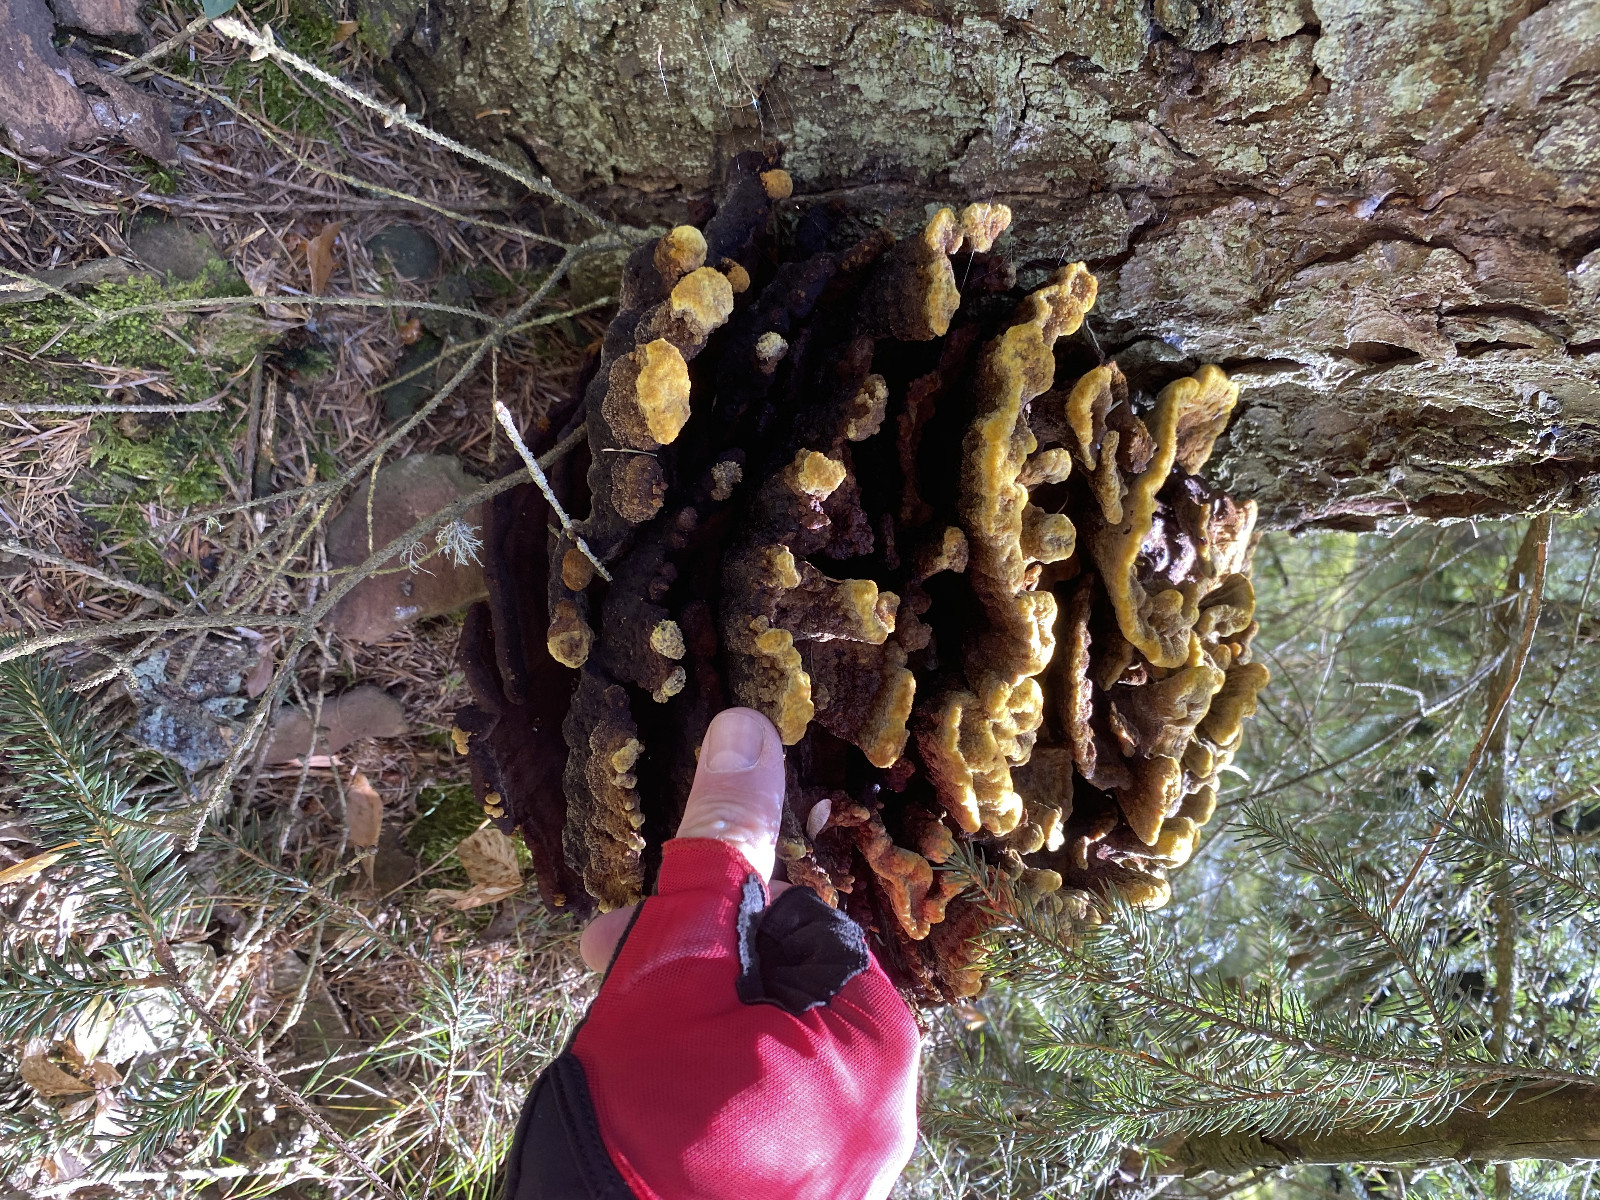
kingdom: Fungi
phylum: Basidiomycota
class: Agaricomycetes
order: Polyporales
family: Laetiporaceae
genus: Phaeolus
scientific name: Phaeolus schweinitzii
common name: brunporesvamp
